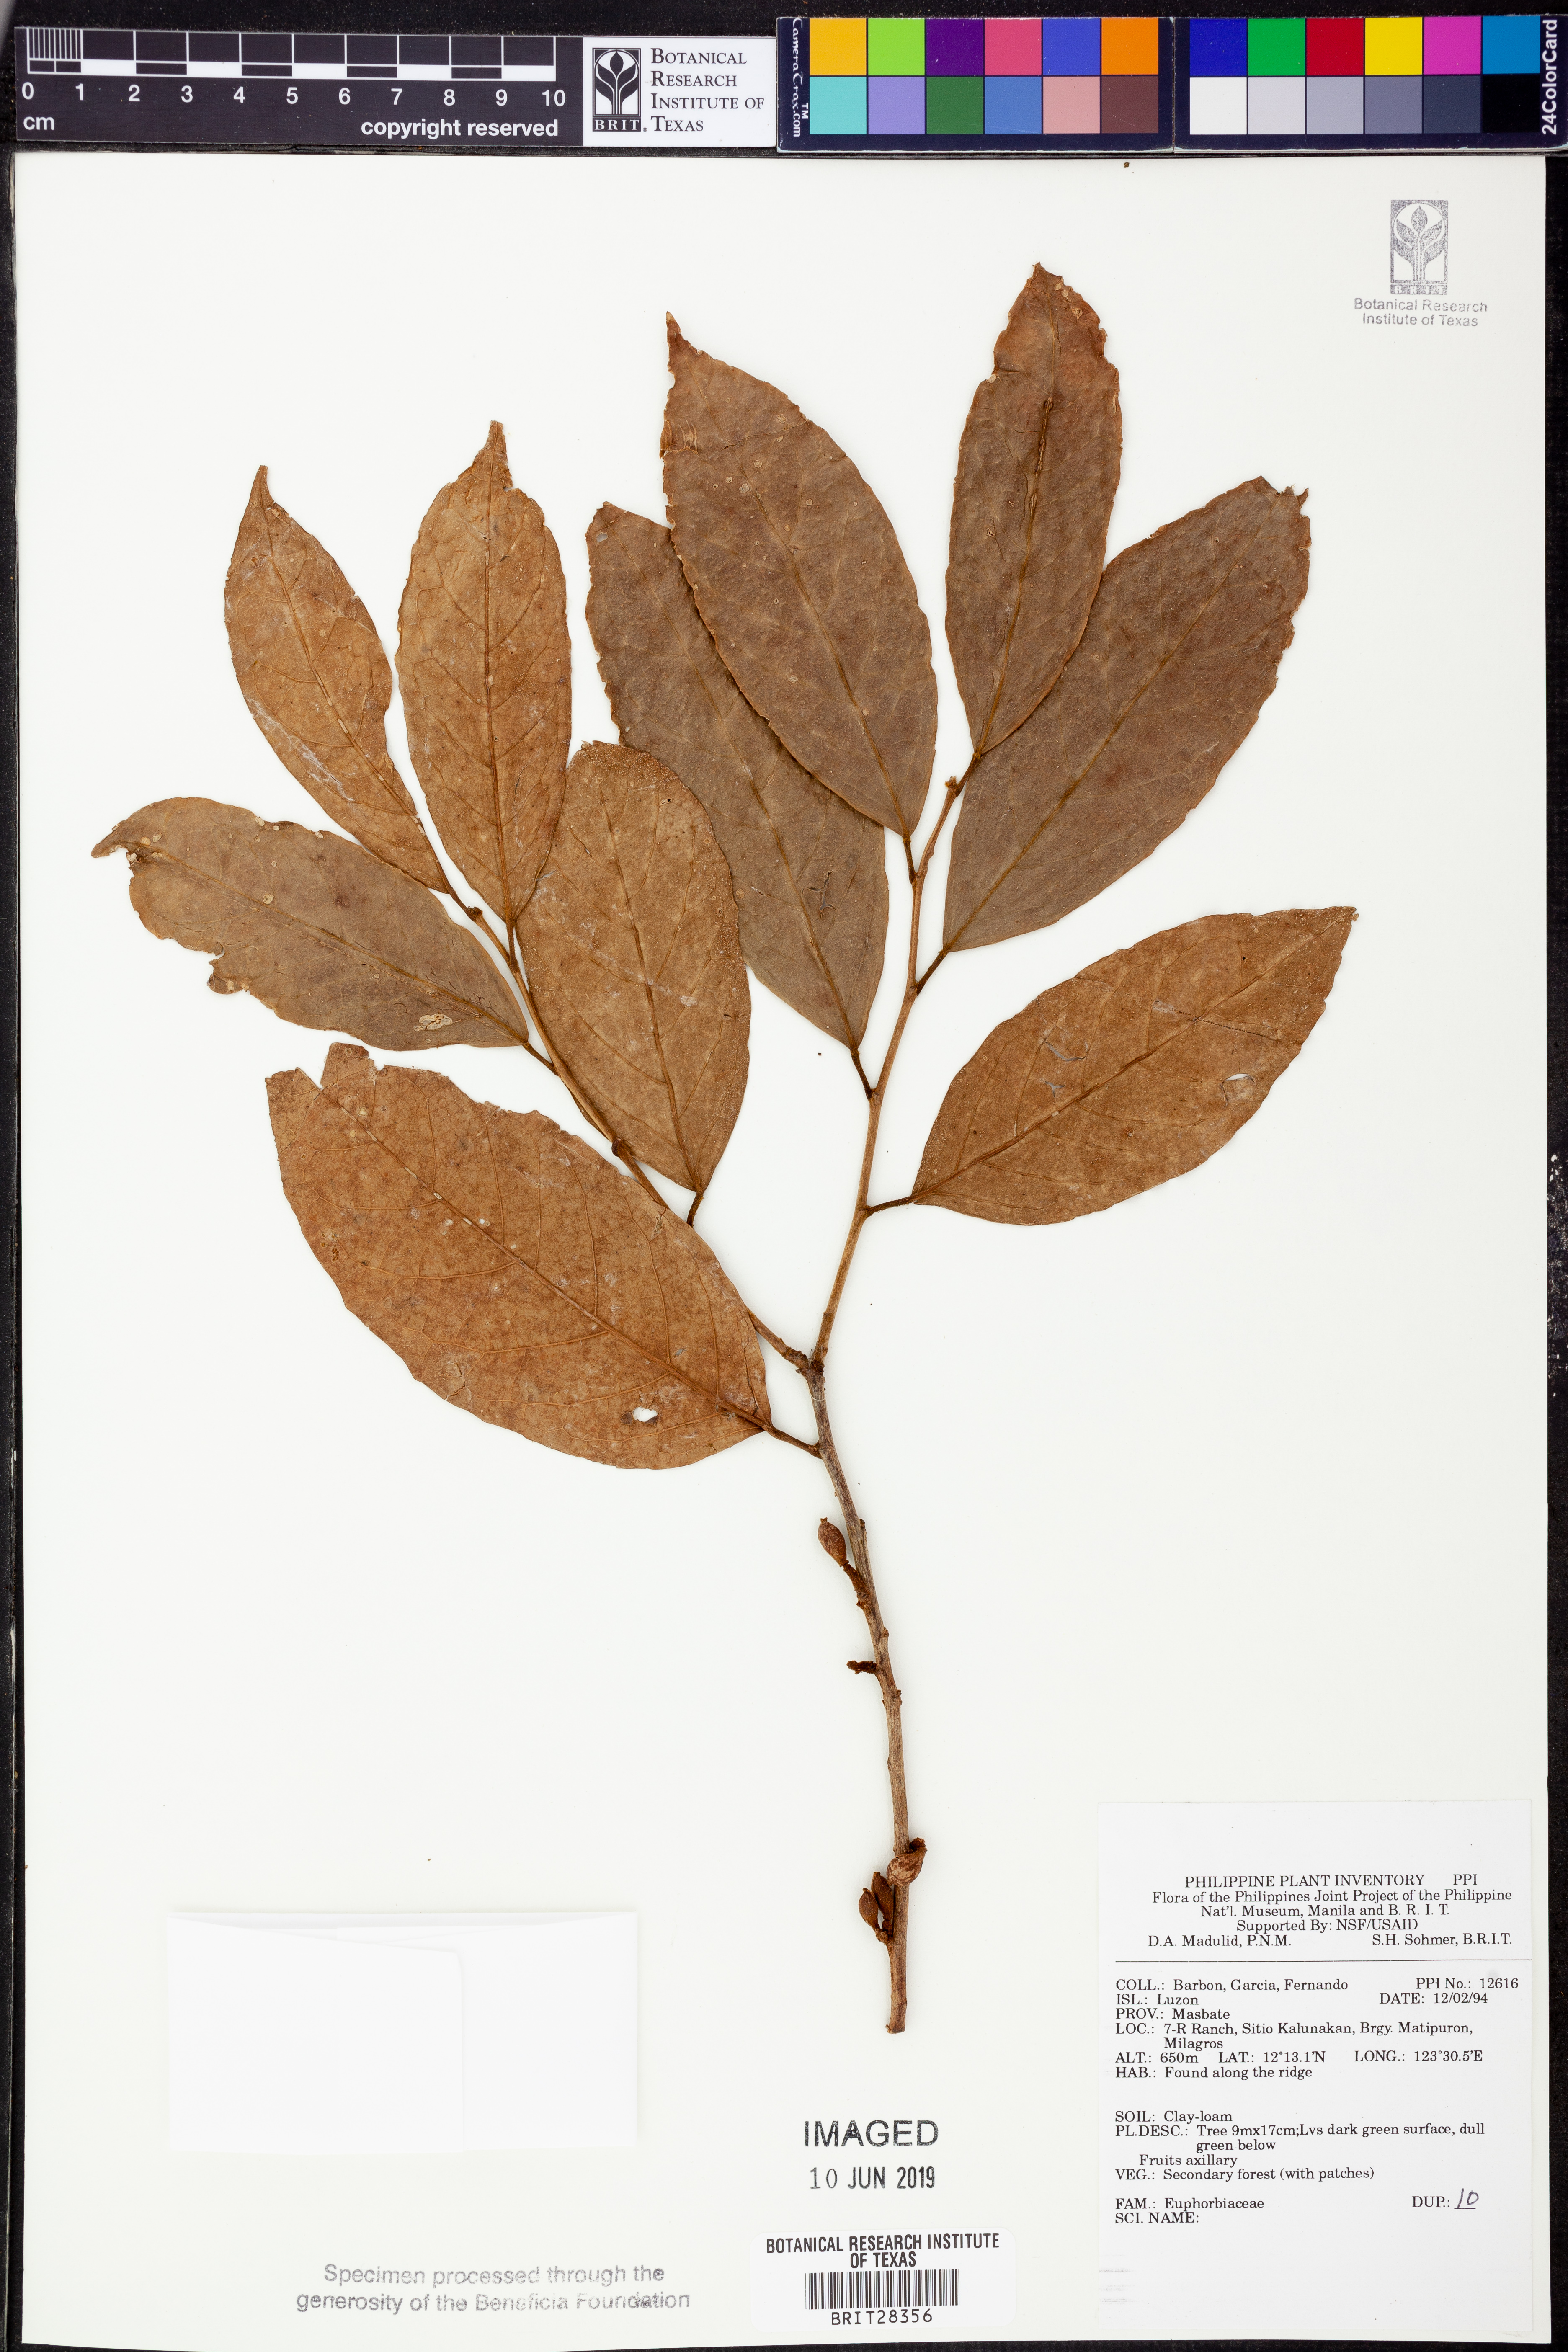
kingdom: Plantae
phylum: Tracheophyta
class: Magnoliopsida
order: Malpighiales
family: Euphorbiaceae
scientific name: Euphorbiaceae
